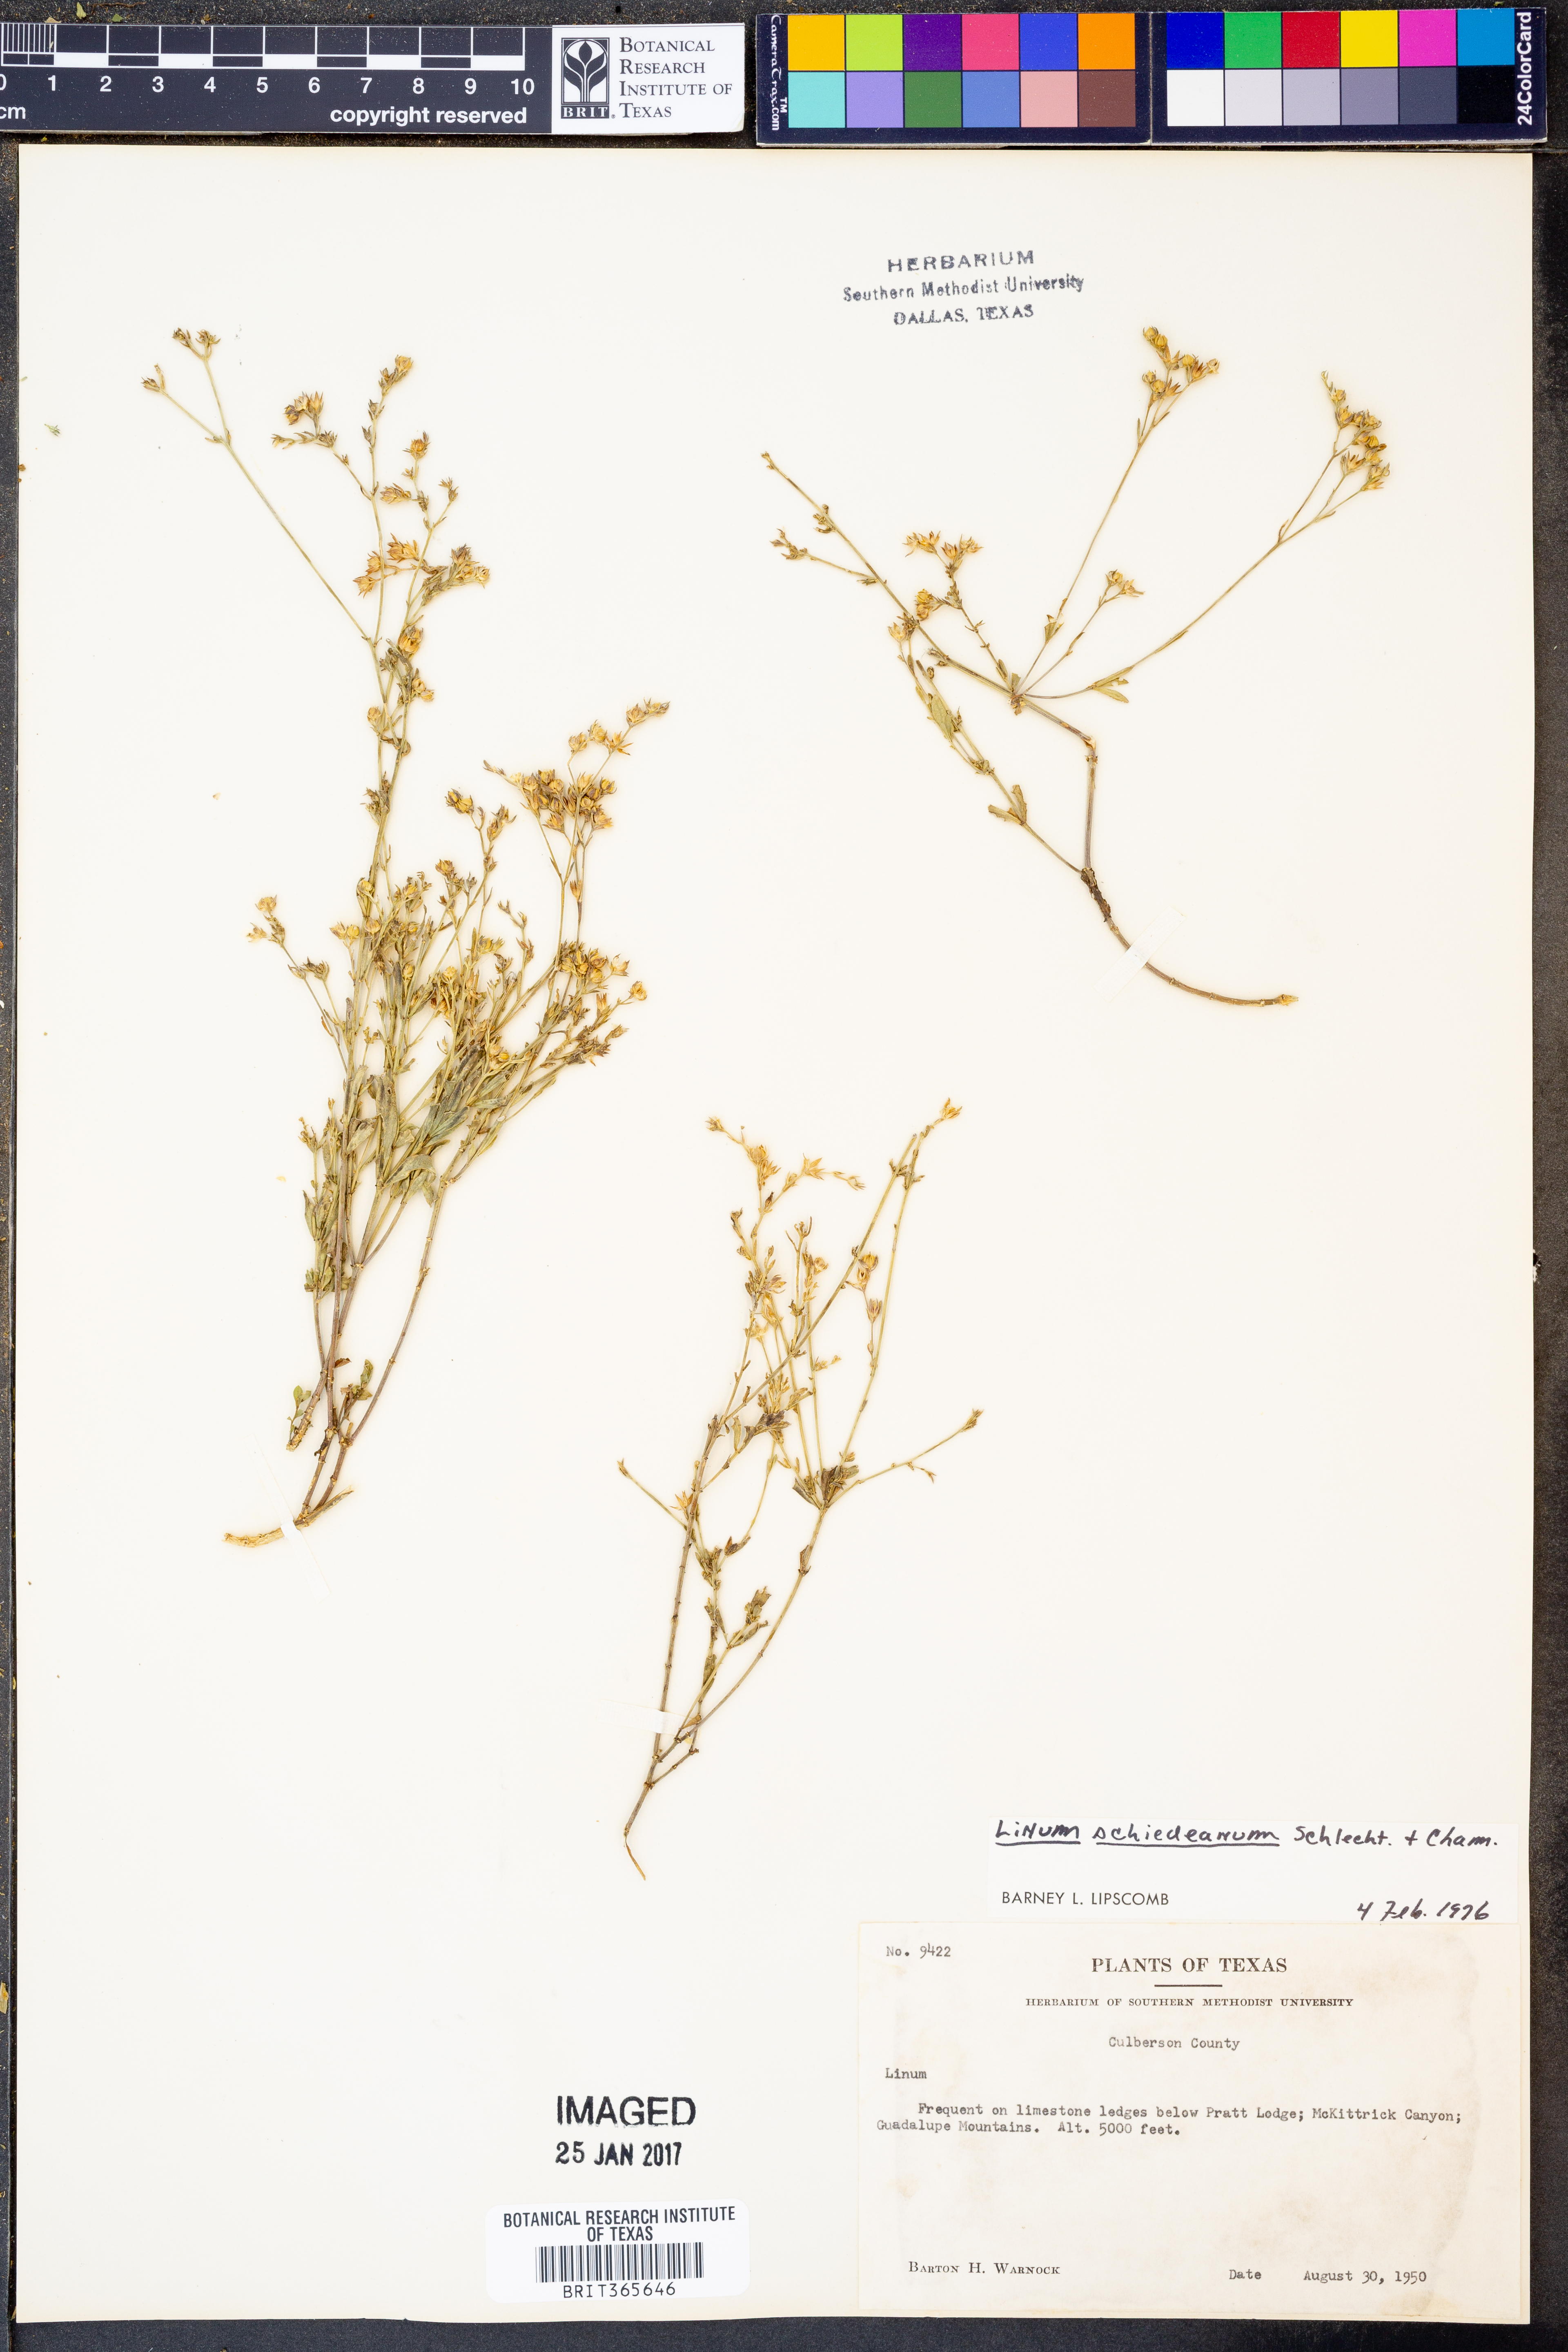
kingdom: Plantae
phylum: Tracheophyta
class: Magnoliopsida
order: Malpighiales
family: Linaceae
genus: Linum
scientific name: Linum schiedeanum
